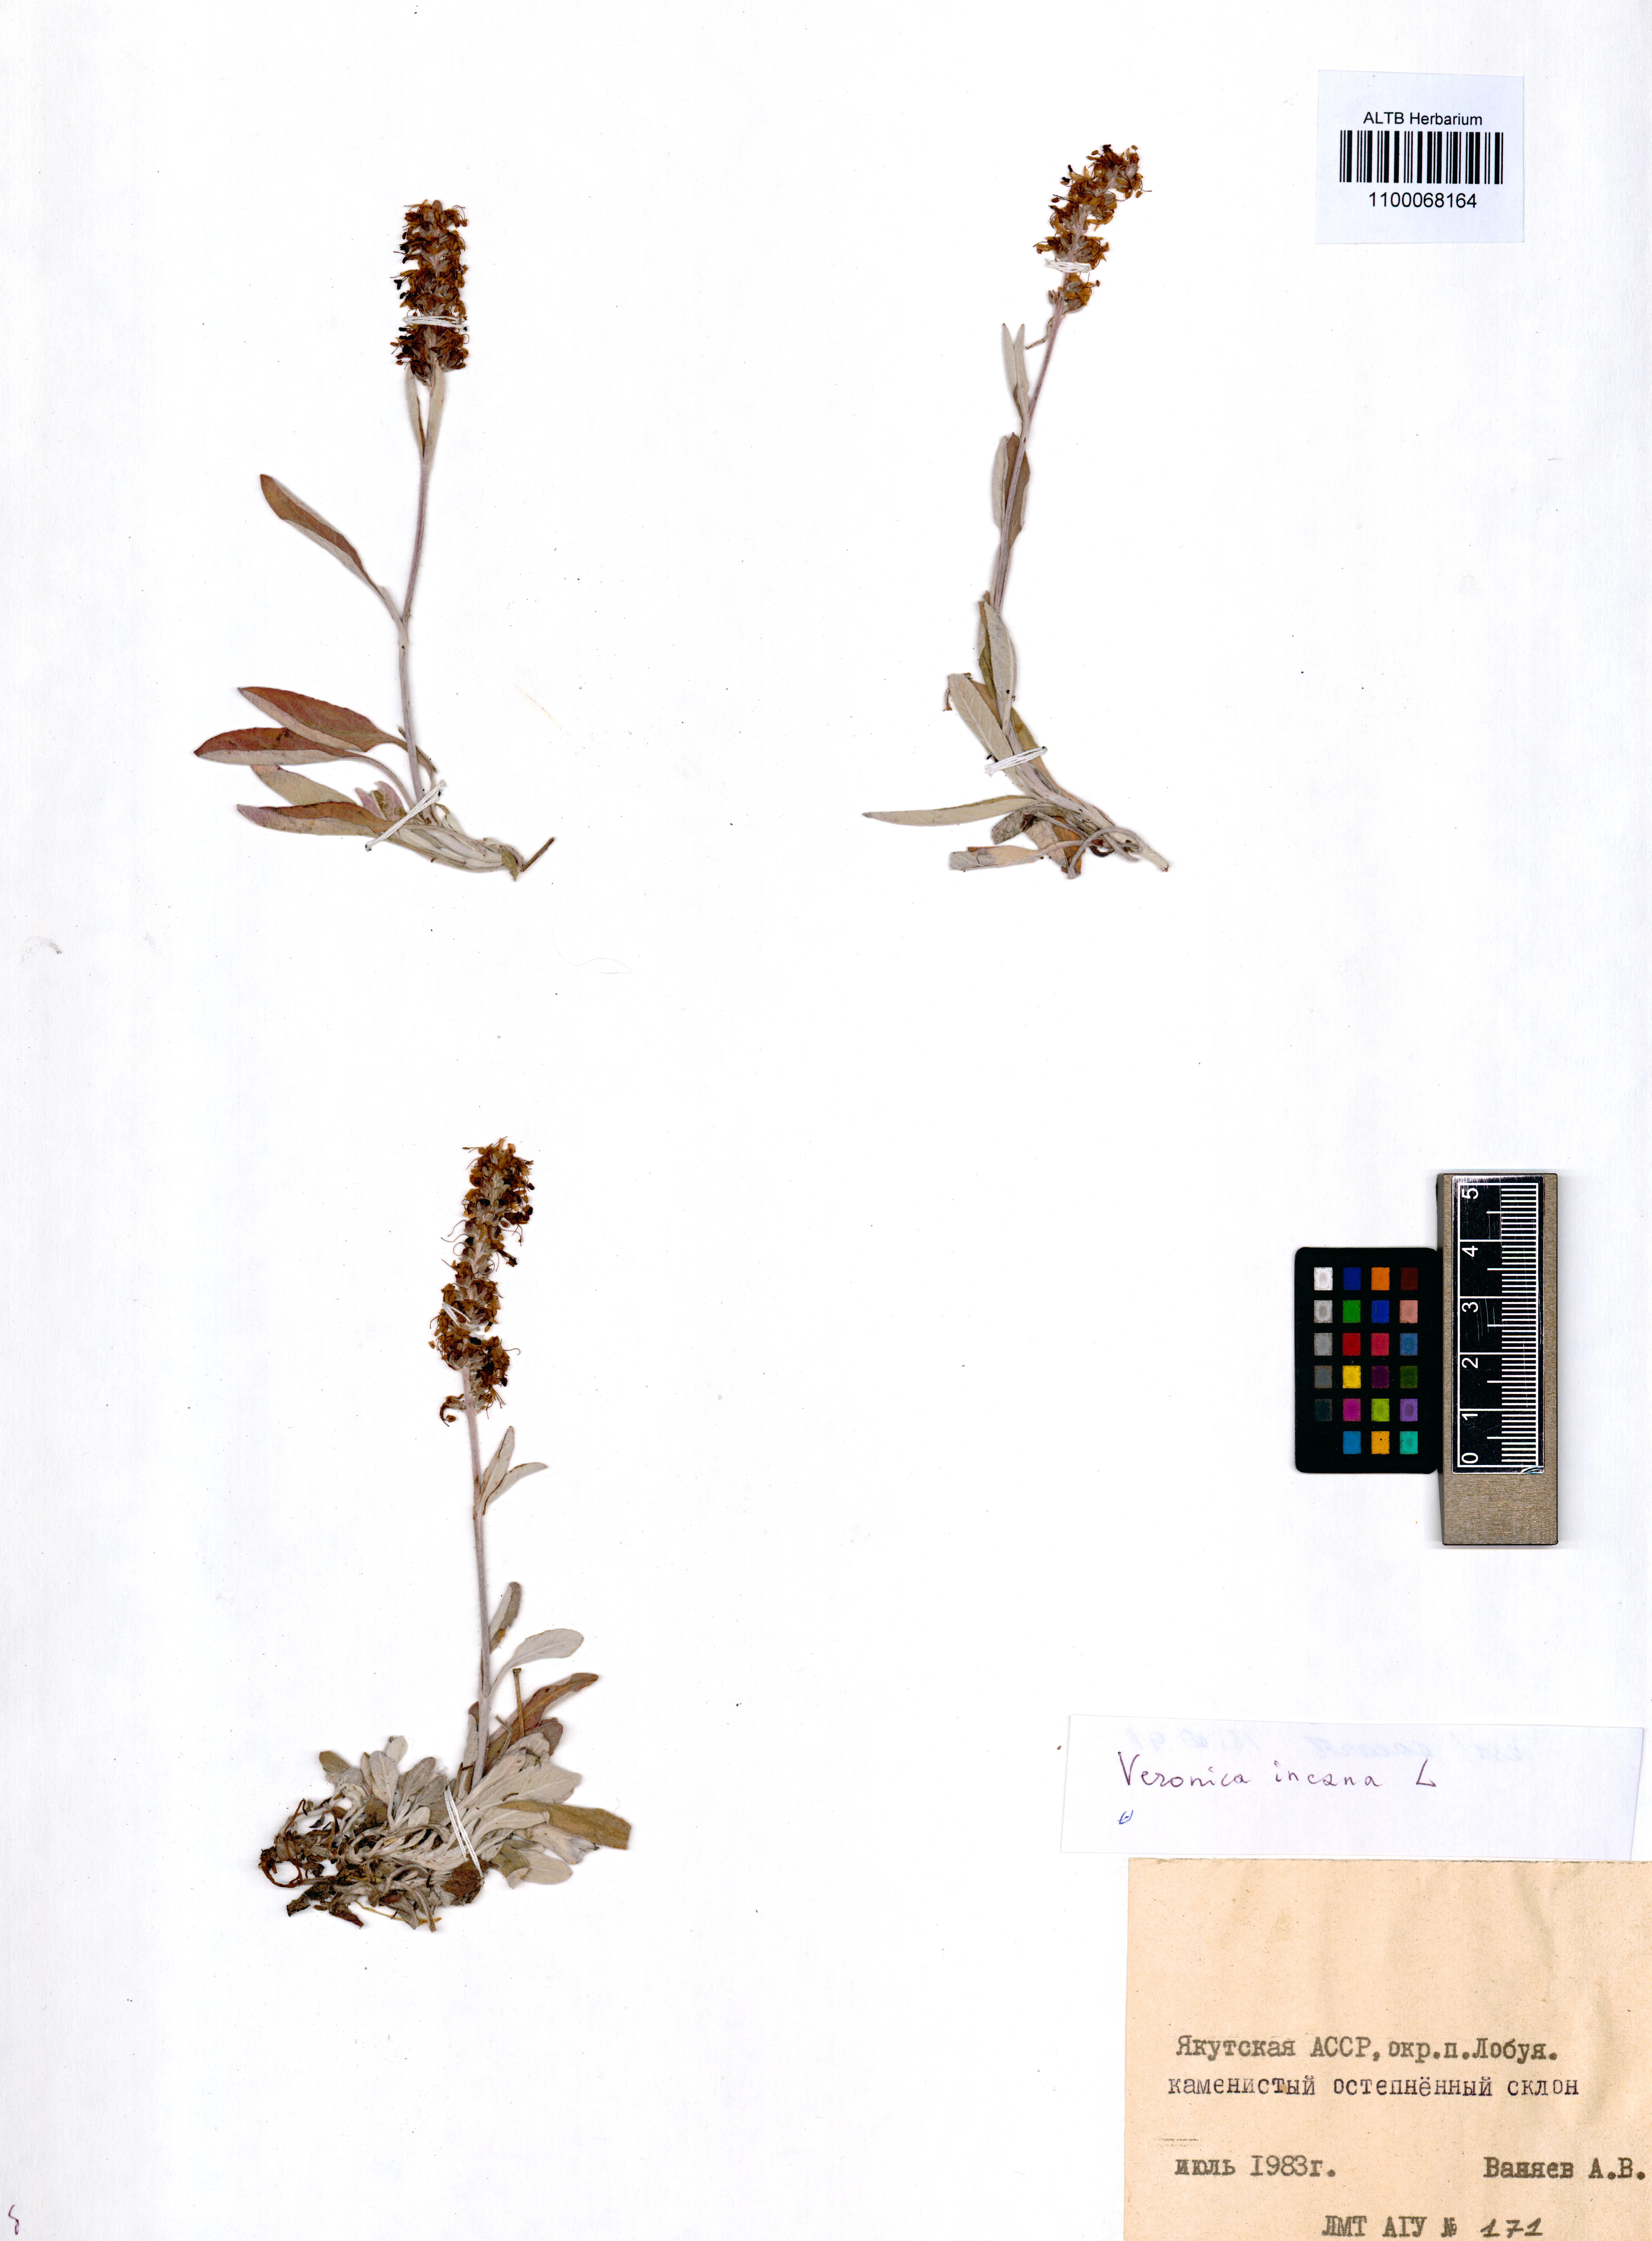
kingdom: Plantae
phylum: Tracheophyta
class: Magnoliopsida
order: Lamiales
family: Plantaginaceae
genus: Veronica
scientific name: Veronica incana
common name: Silver speedwell
